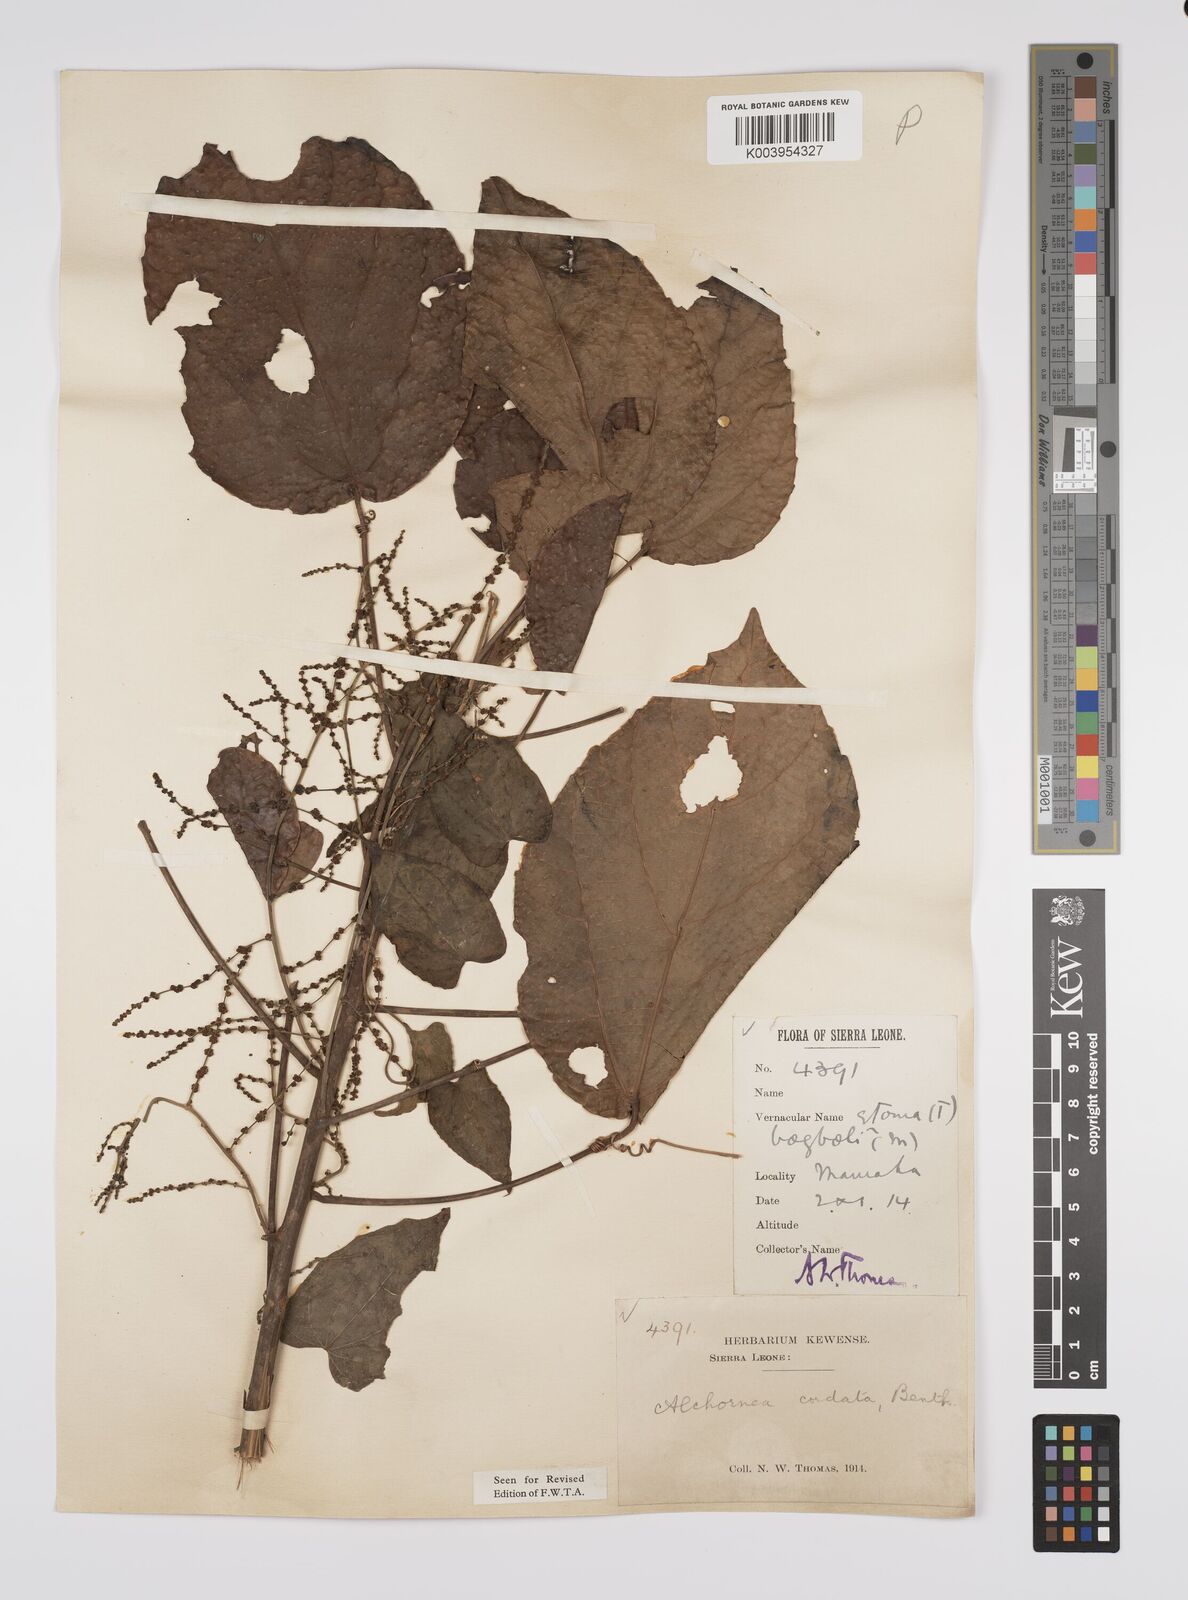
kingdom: Plantae
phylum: Tracheophyta
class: Magnoliopsida
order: Malpighiales
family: Euphorbiaceae
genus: Alchornea
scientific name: Alchornea cordifolia
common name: Christmasbush
